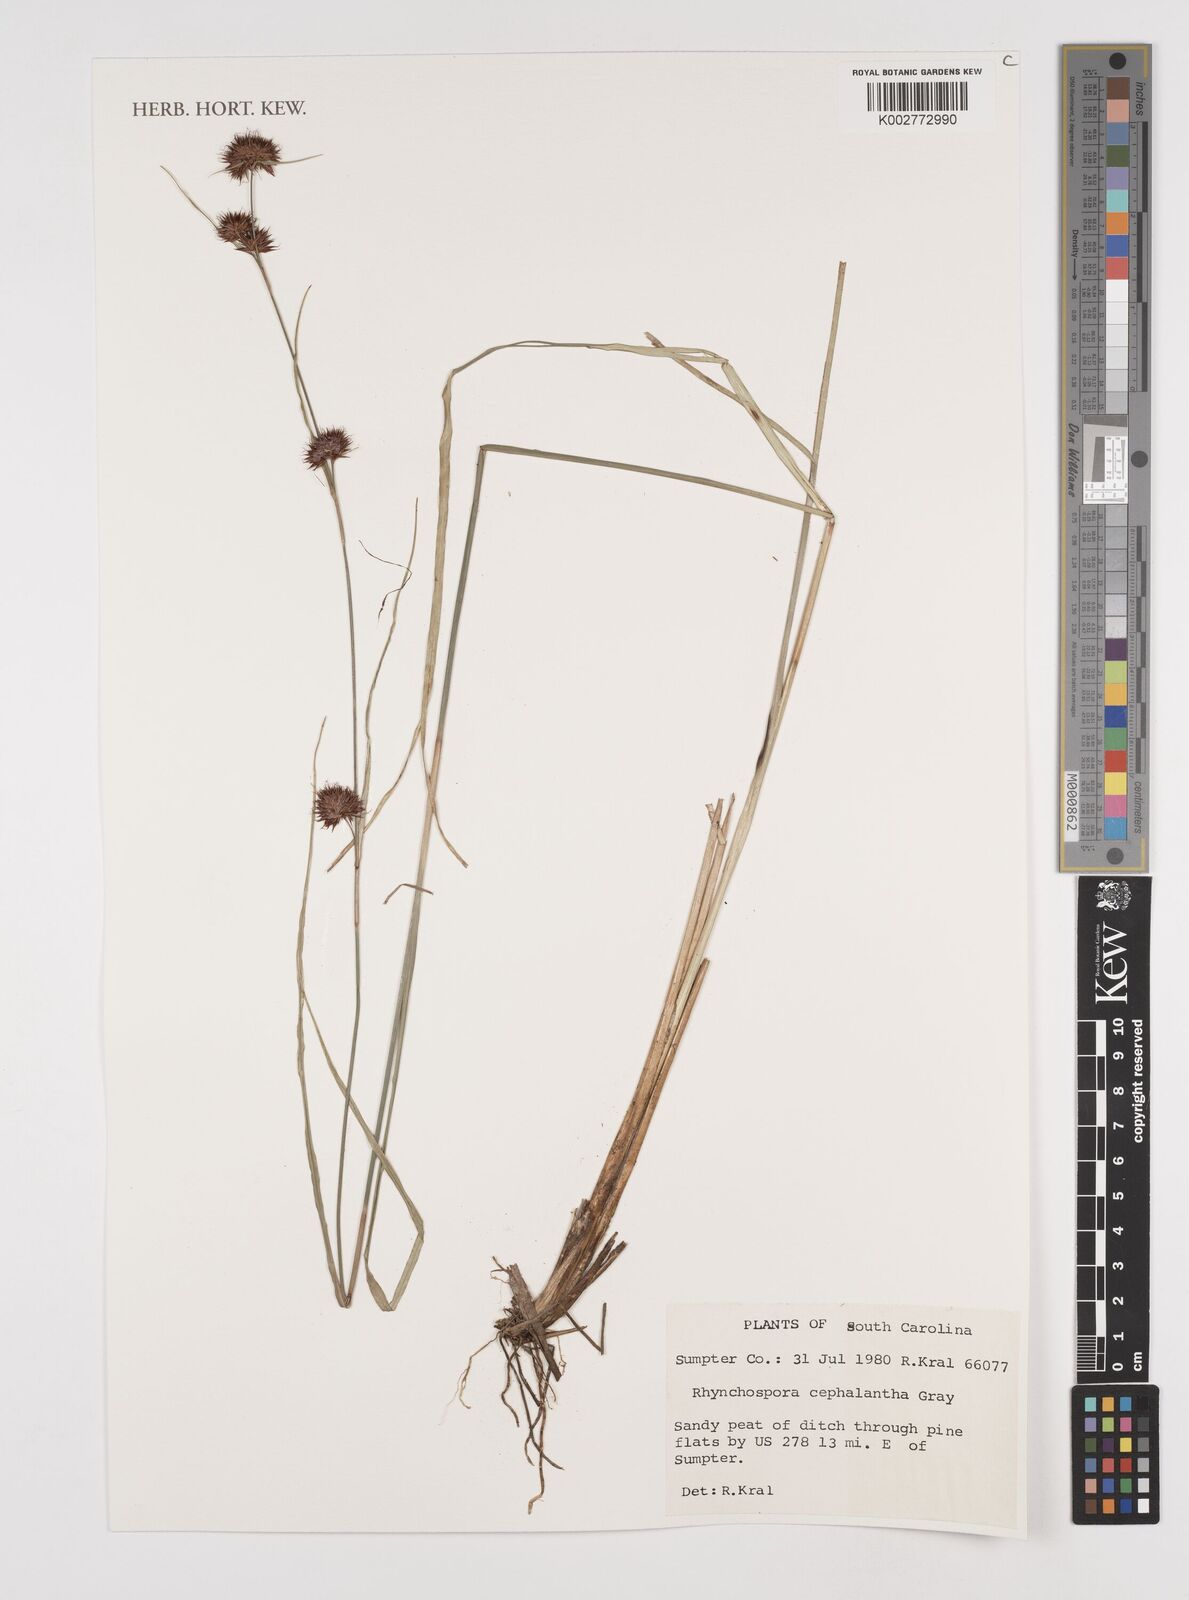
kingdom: Plantae
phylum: Tracheophyta
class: Liliopsida
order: Poales
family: Cyperaceae
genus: Rhynchospora
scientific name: Rhynchospora cephalantha
